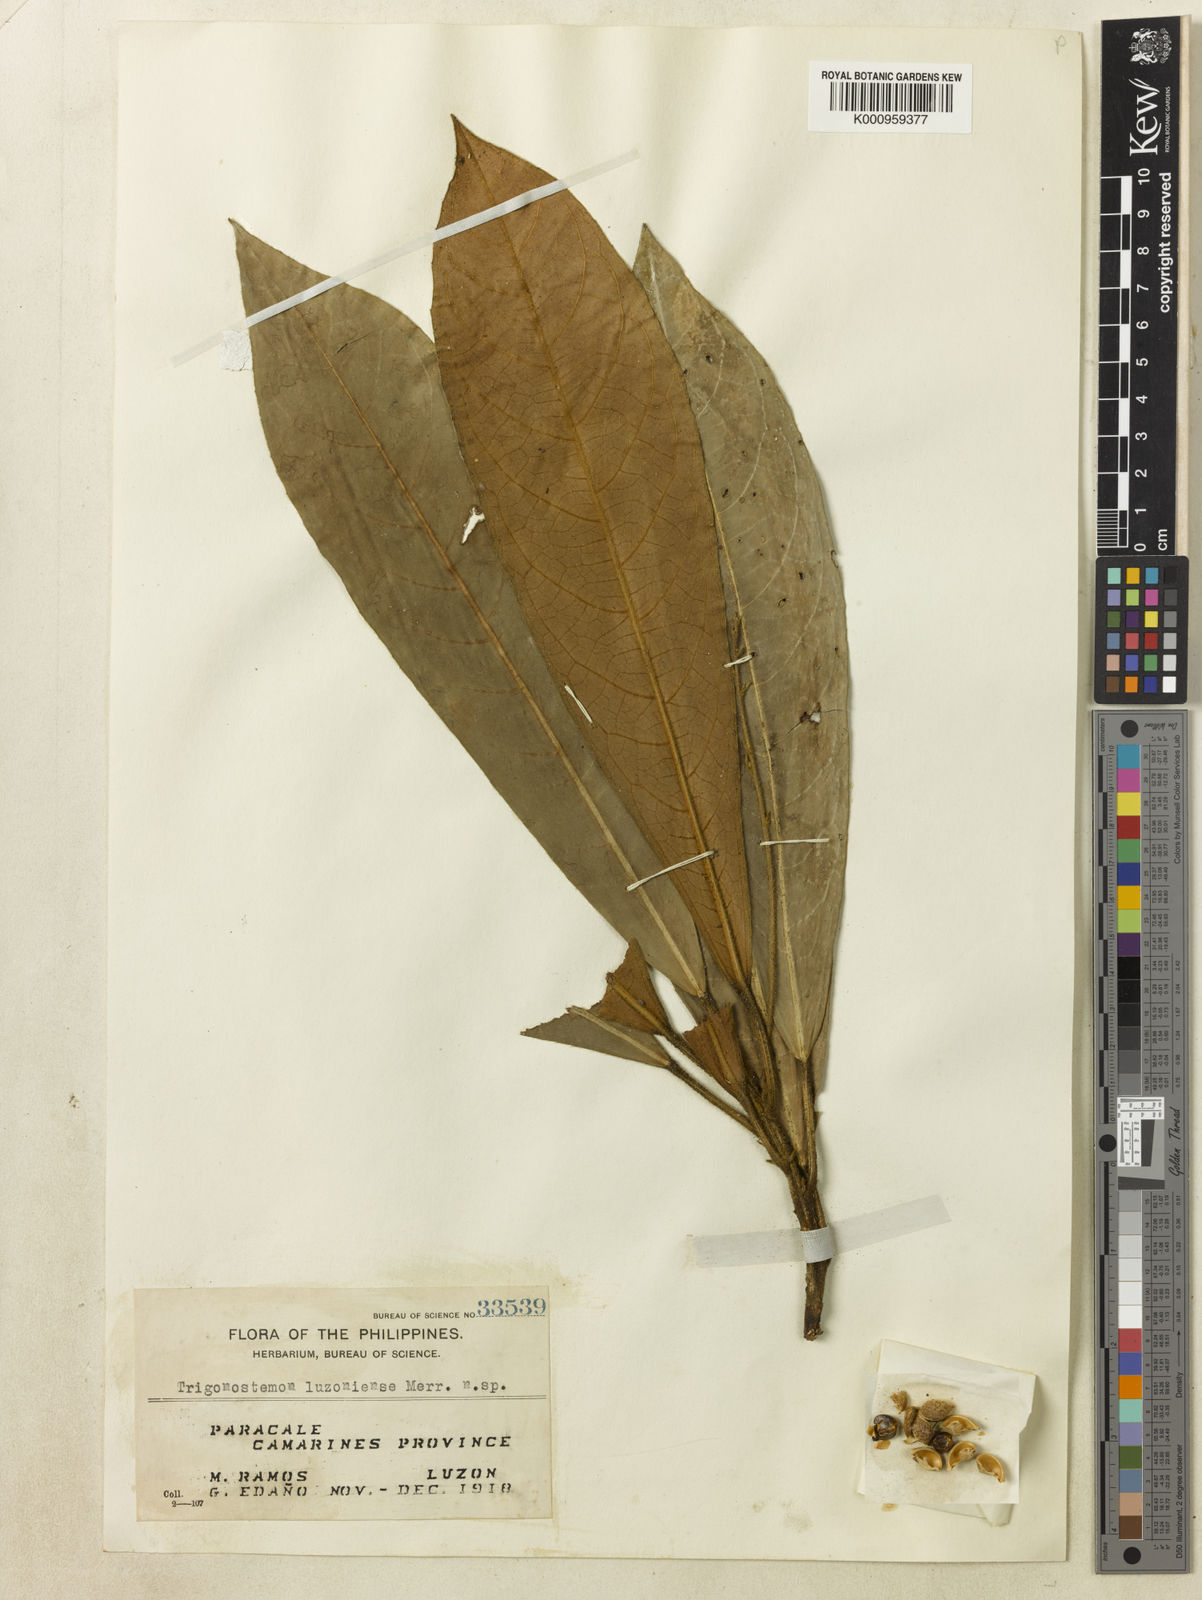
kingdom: Plantae
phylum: Tracheophyta
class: Magnoliopsida
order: Malpighiales
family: Euphorbiaceae
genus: Trigonostemon
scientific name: Trigonostemon oblongifolius
